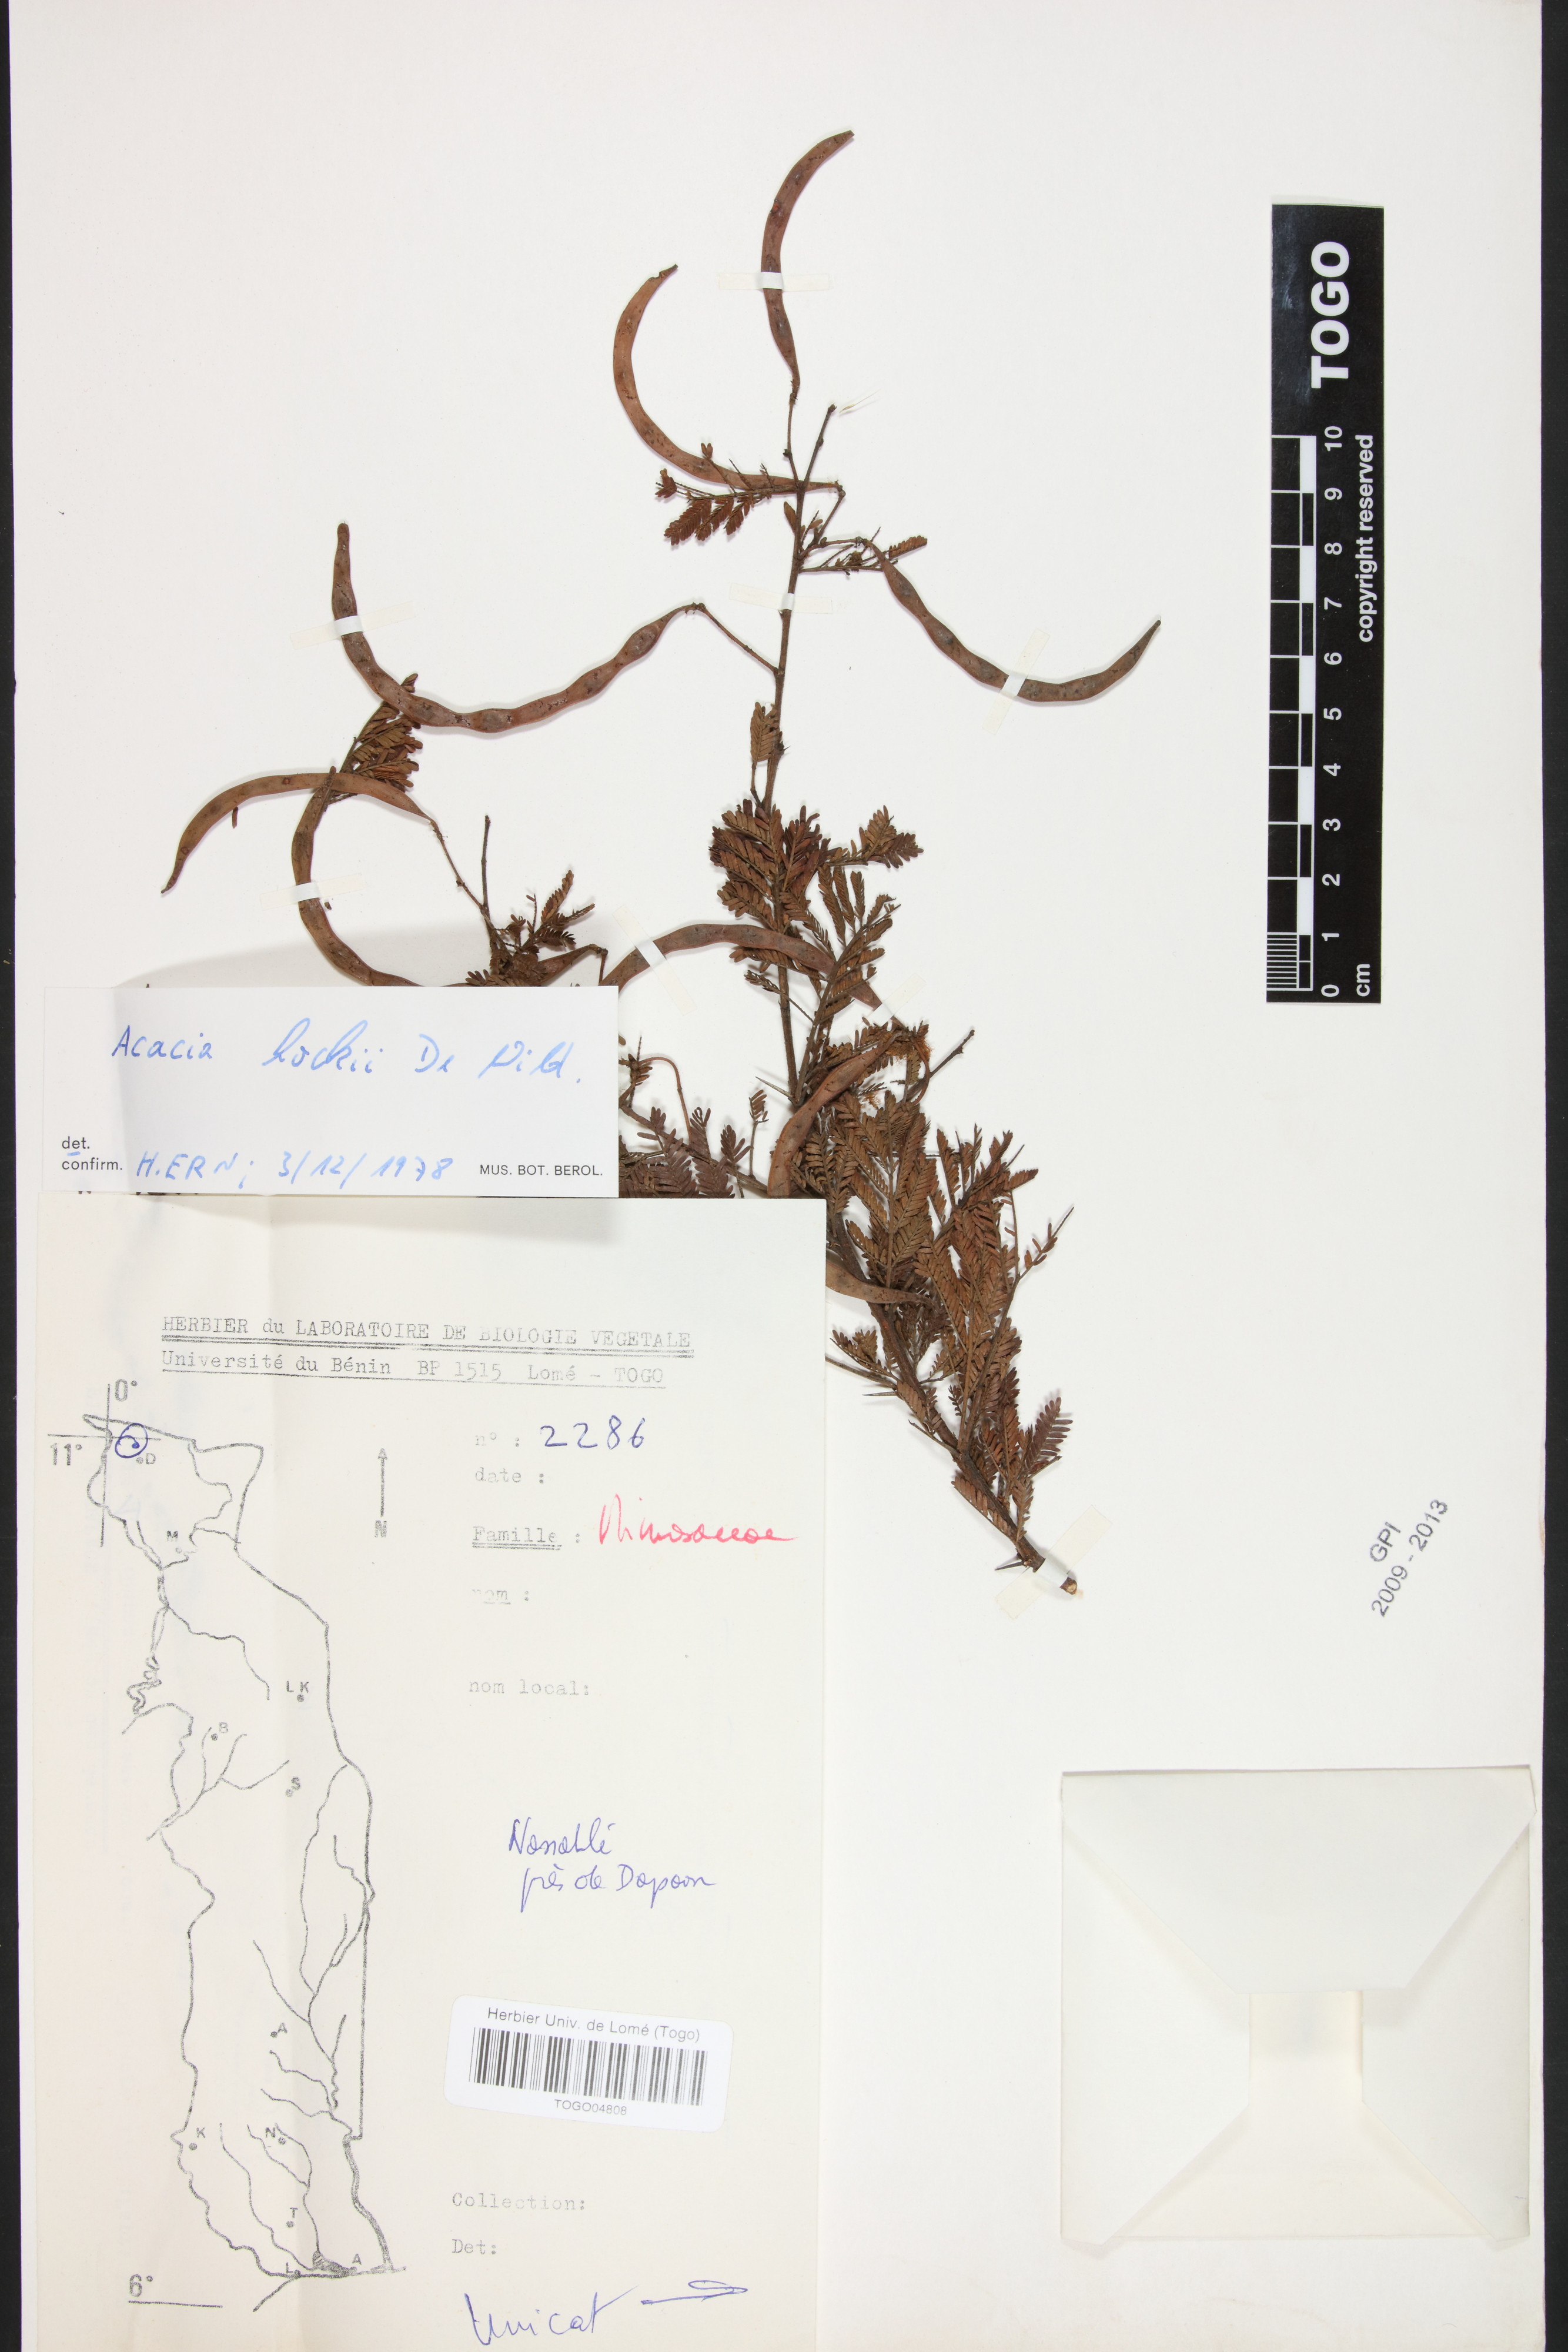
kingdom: Plantae
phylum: Tracheophyta
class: Magnoliopsida
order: Fabales
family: Fabaceae
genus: Vachellia
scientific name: Vachellia hockii
